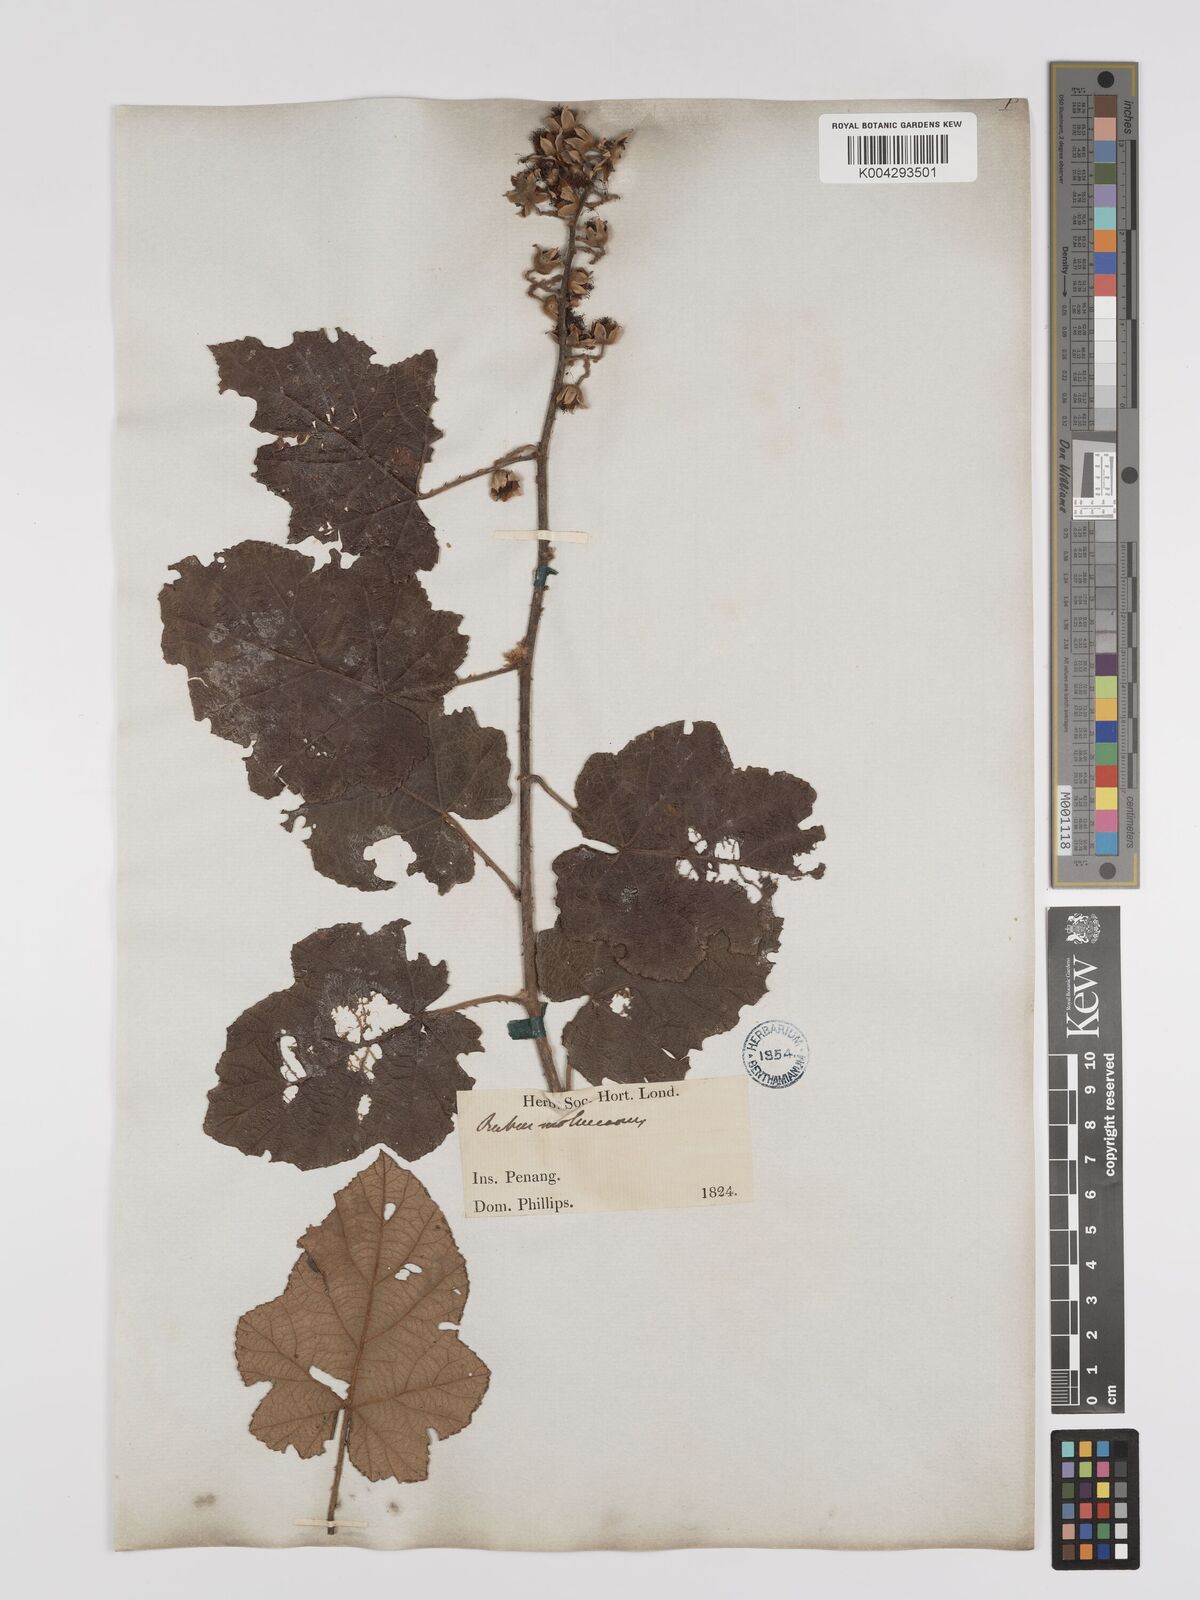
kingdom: Plantae
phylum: Tracheophyta
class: Magnoliopsida
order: Rosales
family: Rosaceae
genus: Rubus
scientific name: Rubus moluccanus
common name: Wild raspberry
